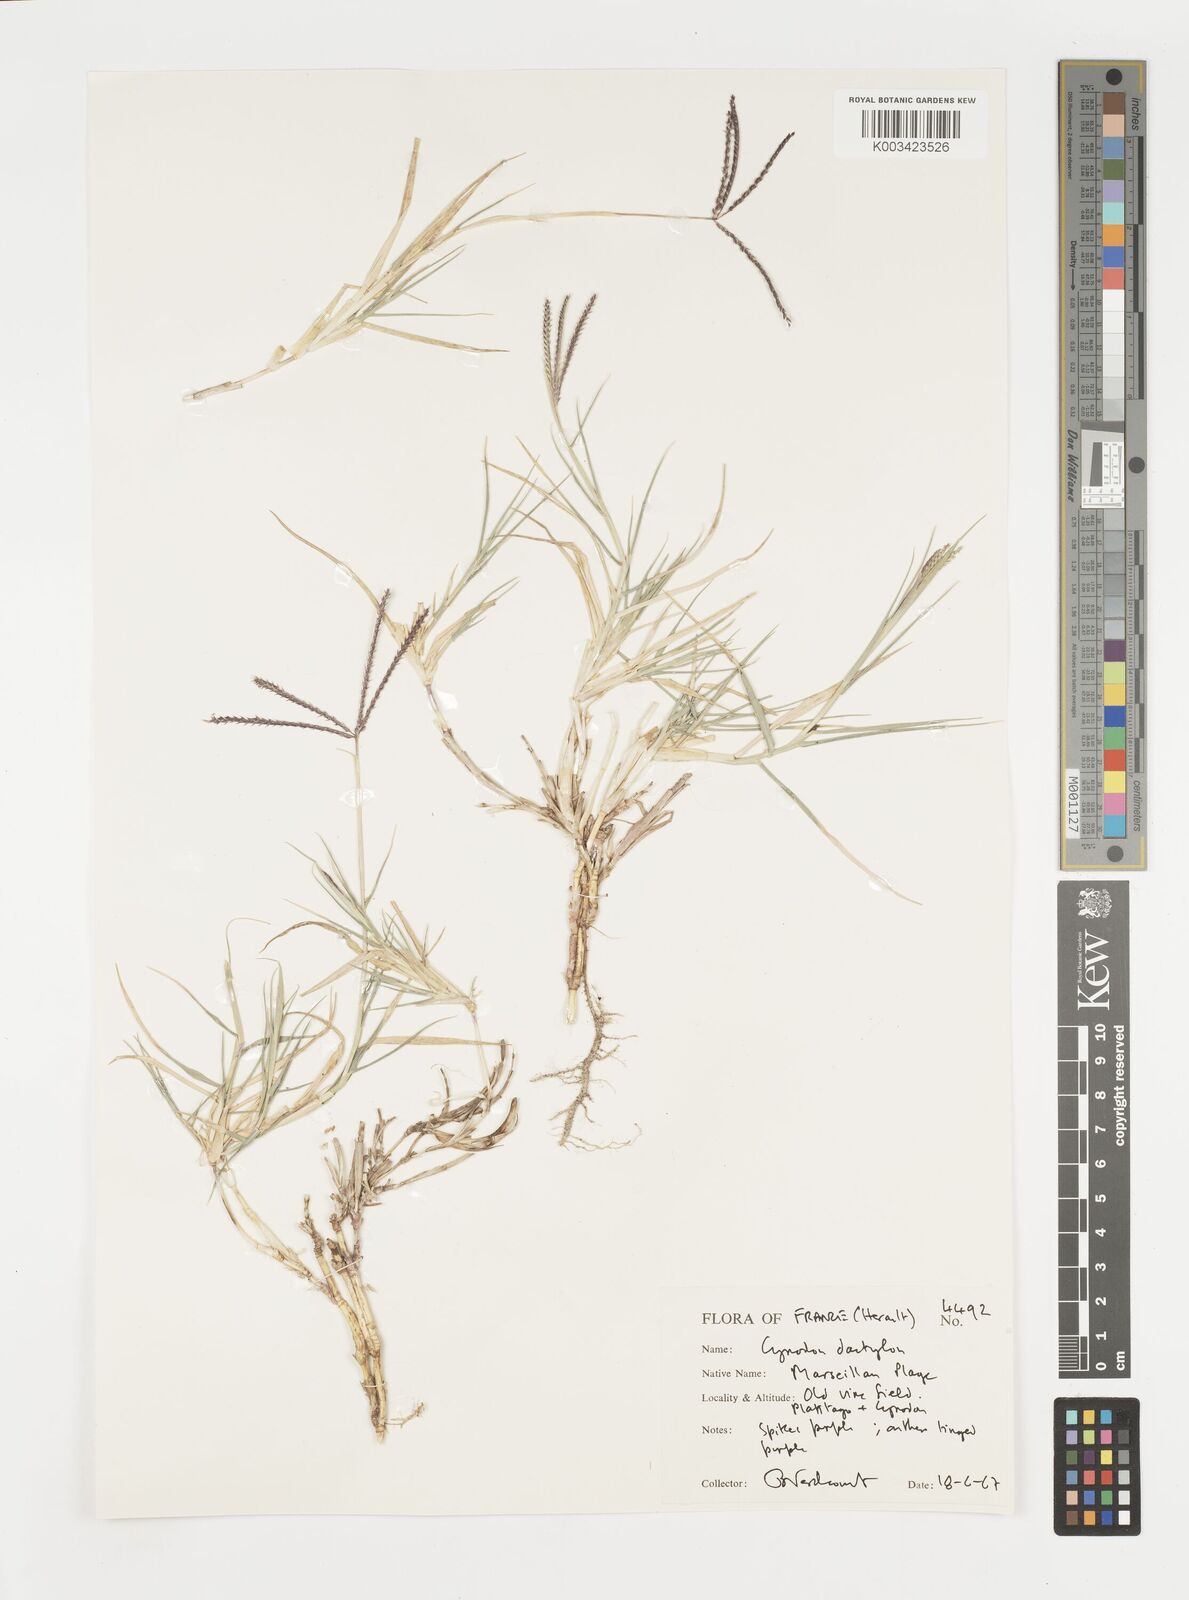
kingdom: Plantae
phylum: Tracheophyta
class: Liliopsida
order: Poales
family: Poaceae
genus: Cynodon
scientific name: Cynodon dactylon
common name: Bermuda grass
